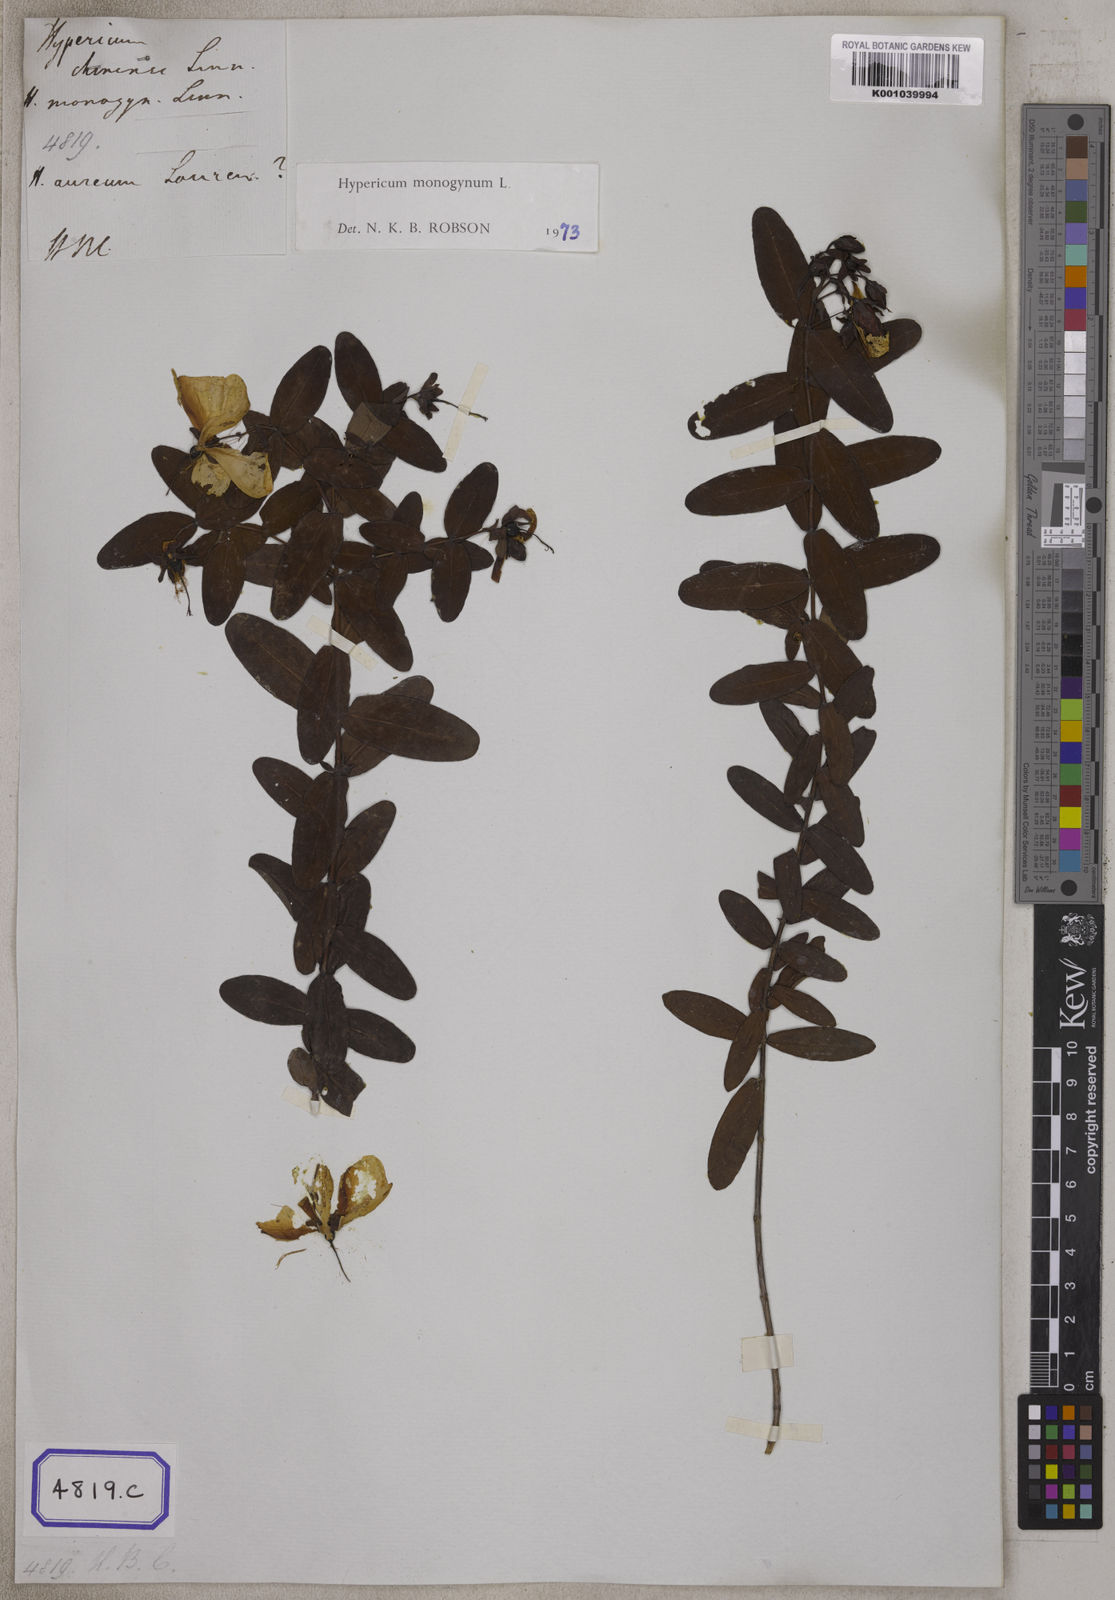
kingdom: Plantae
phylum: Tracheophyta
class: Magnoliopsida
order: Malpighiales
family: Hypericaceae
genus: Hypericum
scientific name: Hypericum monogynum
